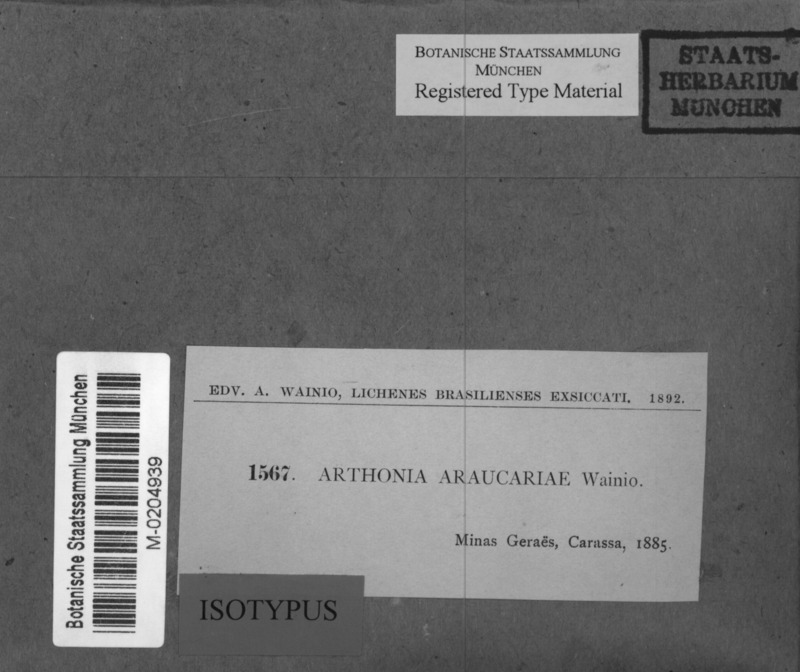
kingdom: Fungi
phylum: Ascomycota
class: Arthoniomycetes
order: Arthoniales
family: Arthoniaceae
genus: Arthonia
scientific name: Arthonia
